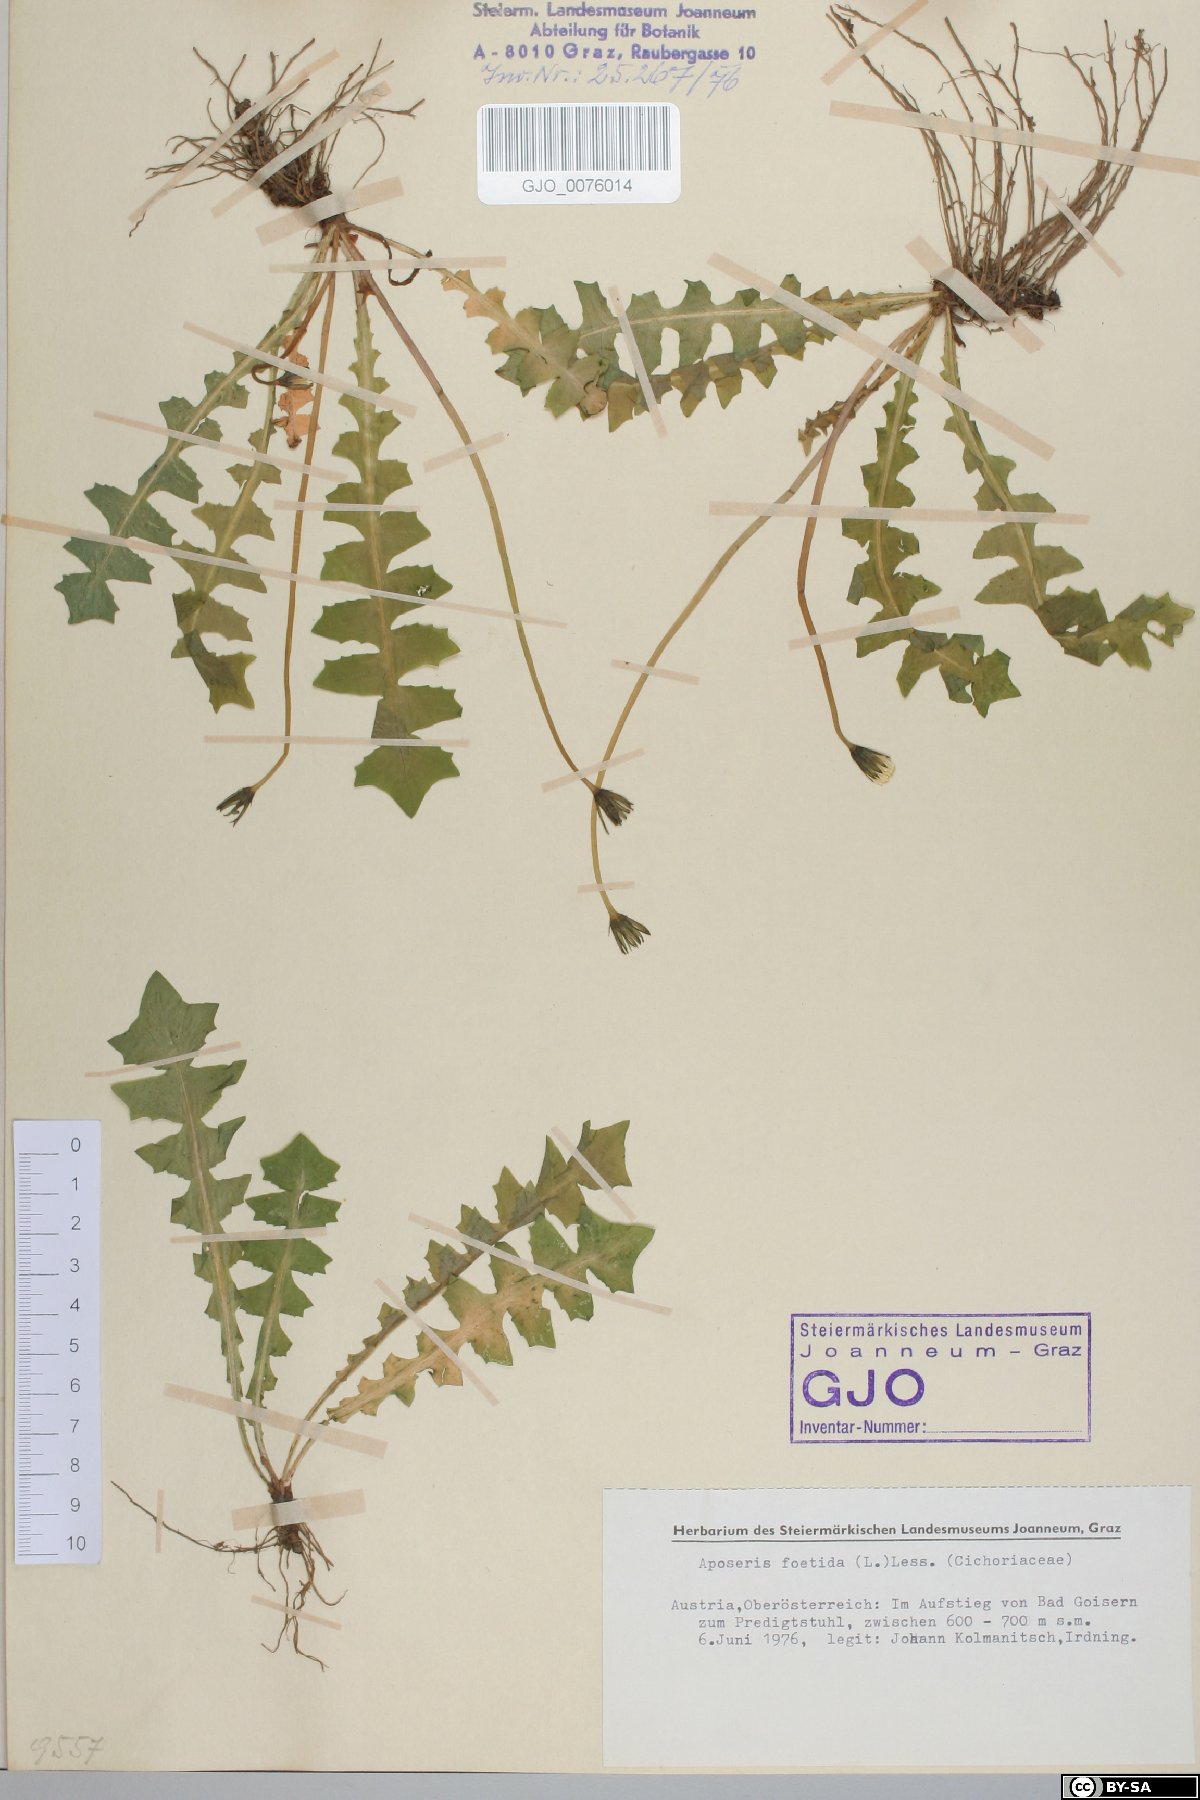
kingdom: Plantae
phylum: Tracheophyta
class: Magnoliopsida
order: Asterales
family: Asteraceae
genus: Aposeris
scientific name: Aposeris foetida
